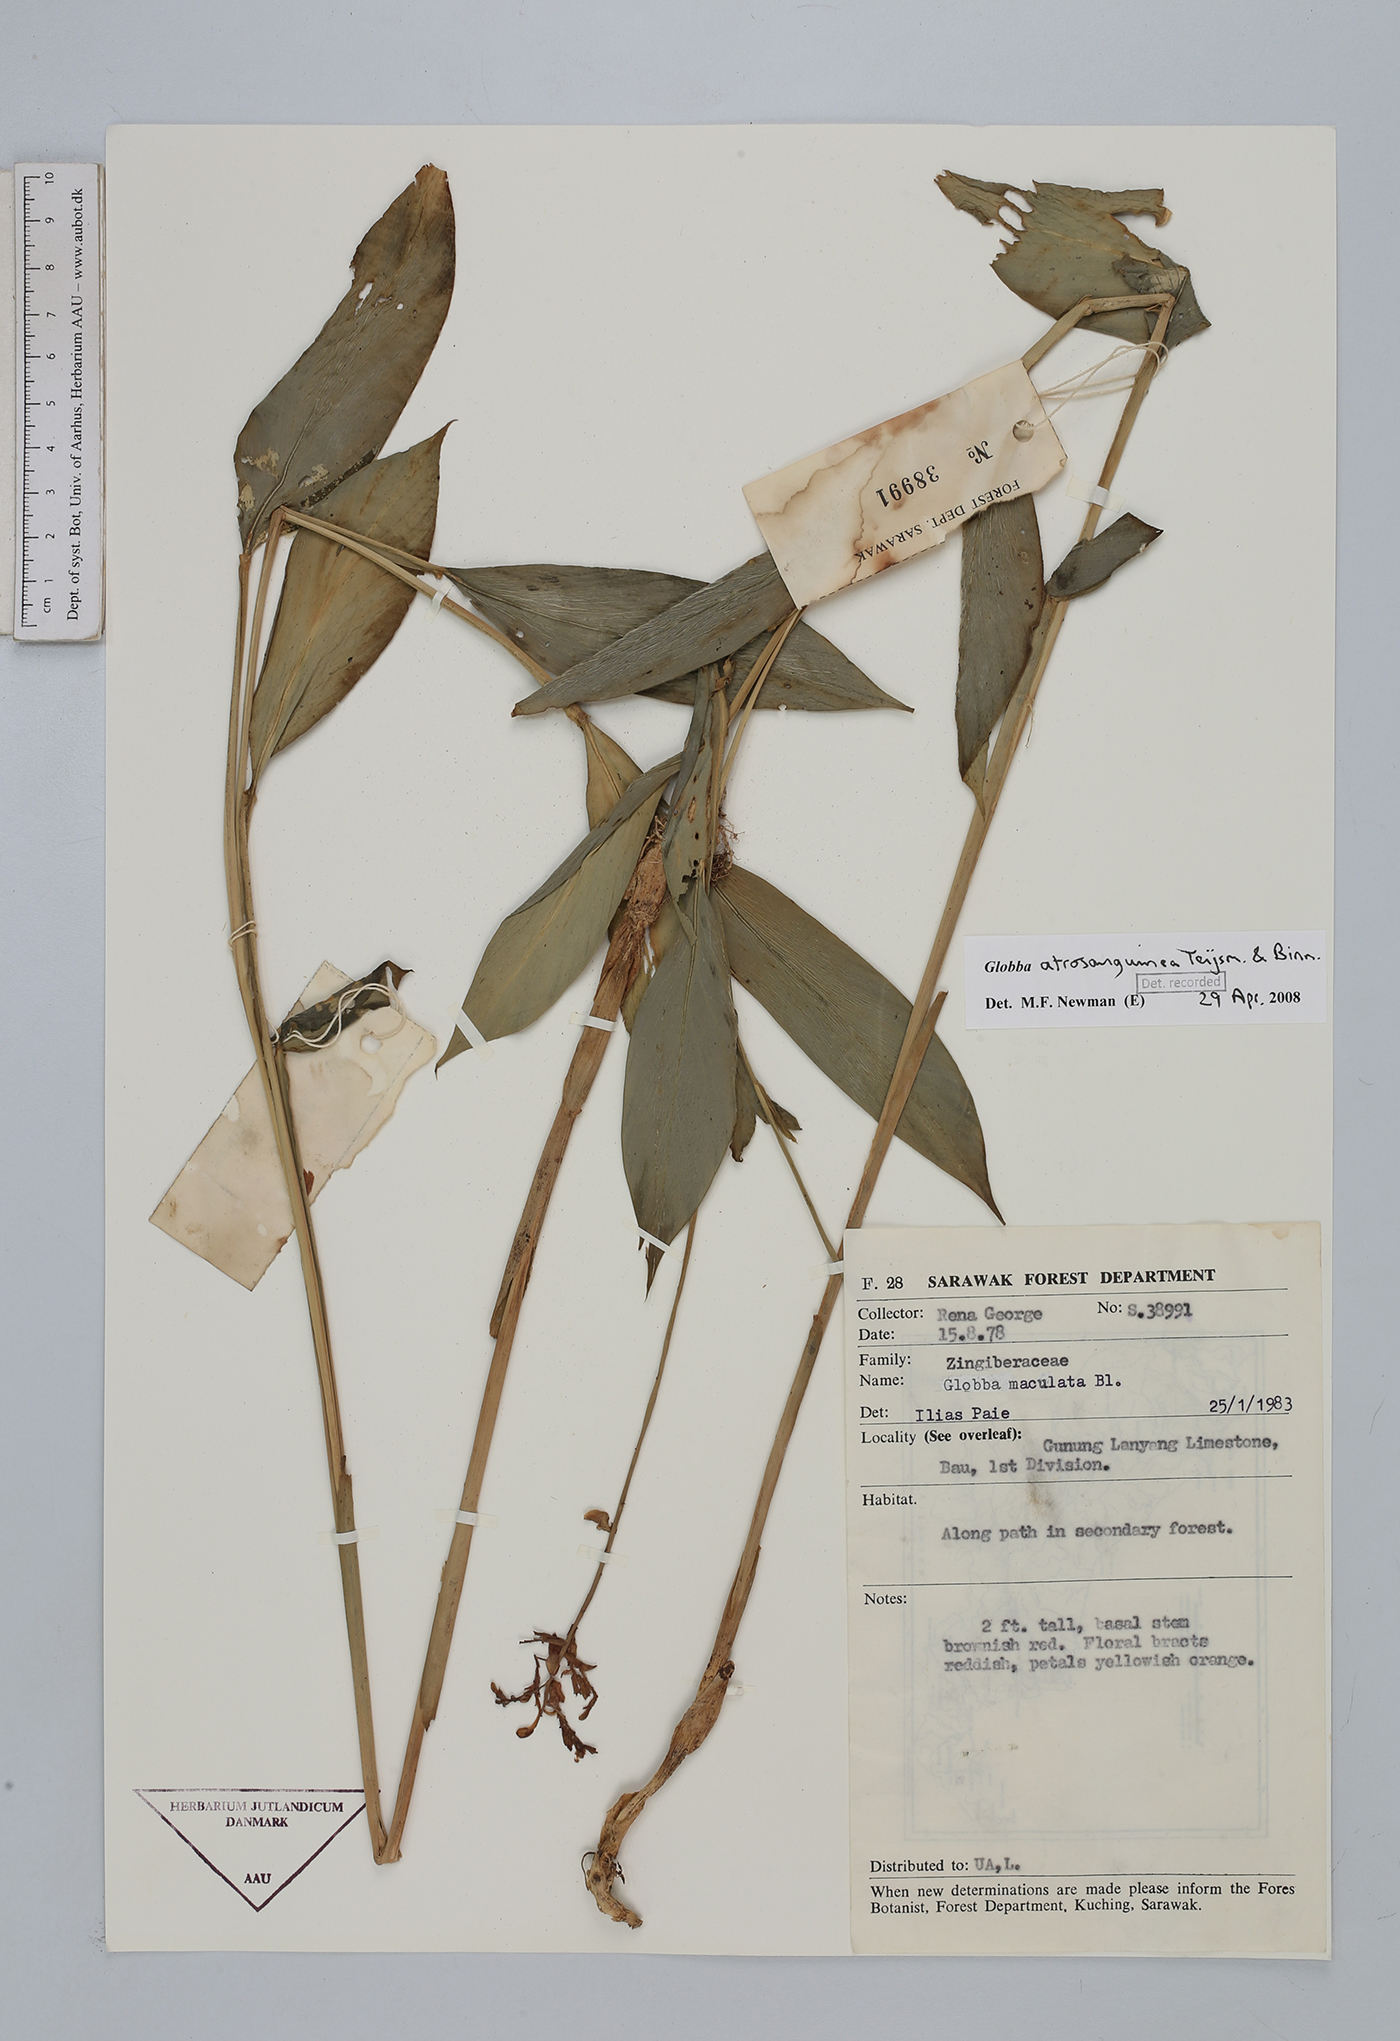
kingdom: Plantae
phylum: Tracheophyta
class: Liliopsida
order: Zingiberales
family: Zingiberaceae
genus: Globba
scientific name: Globba atrosanguinea
